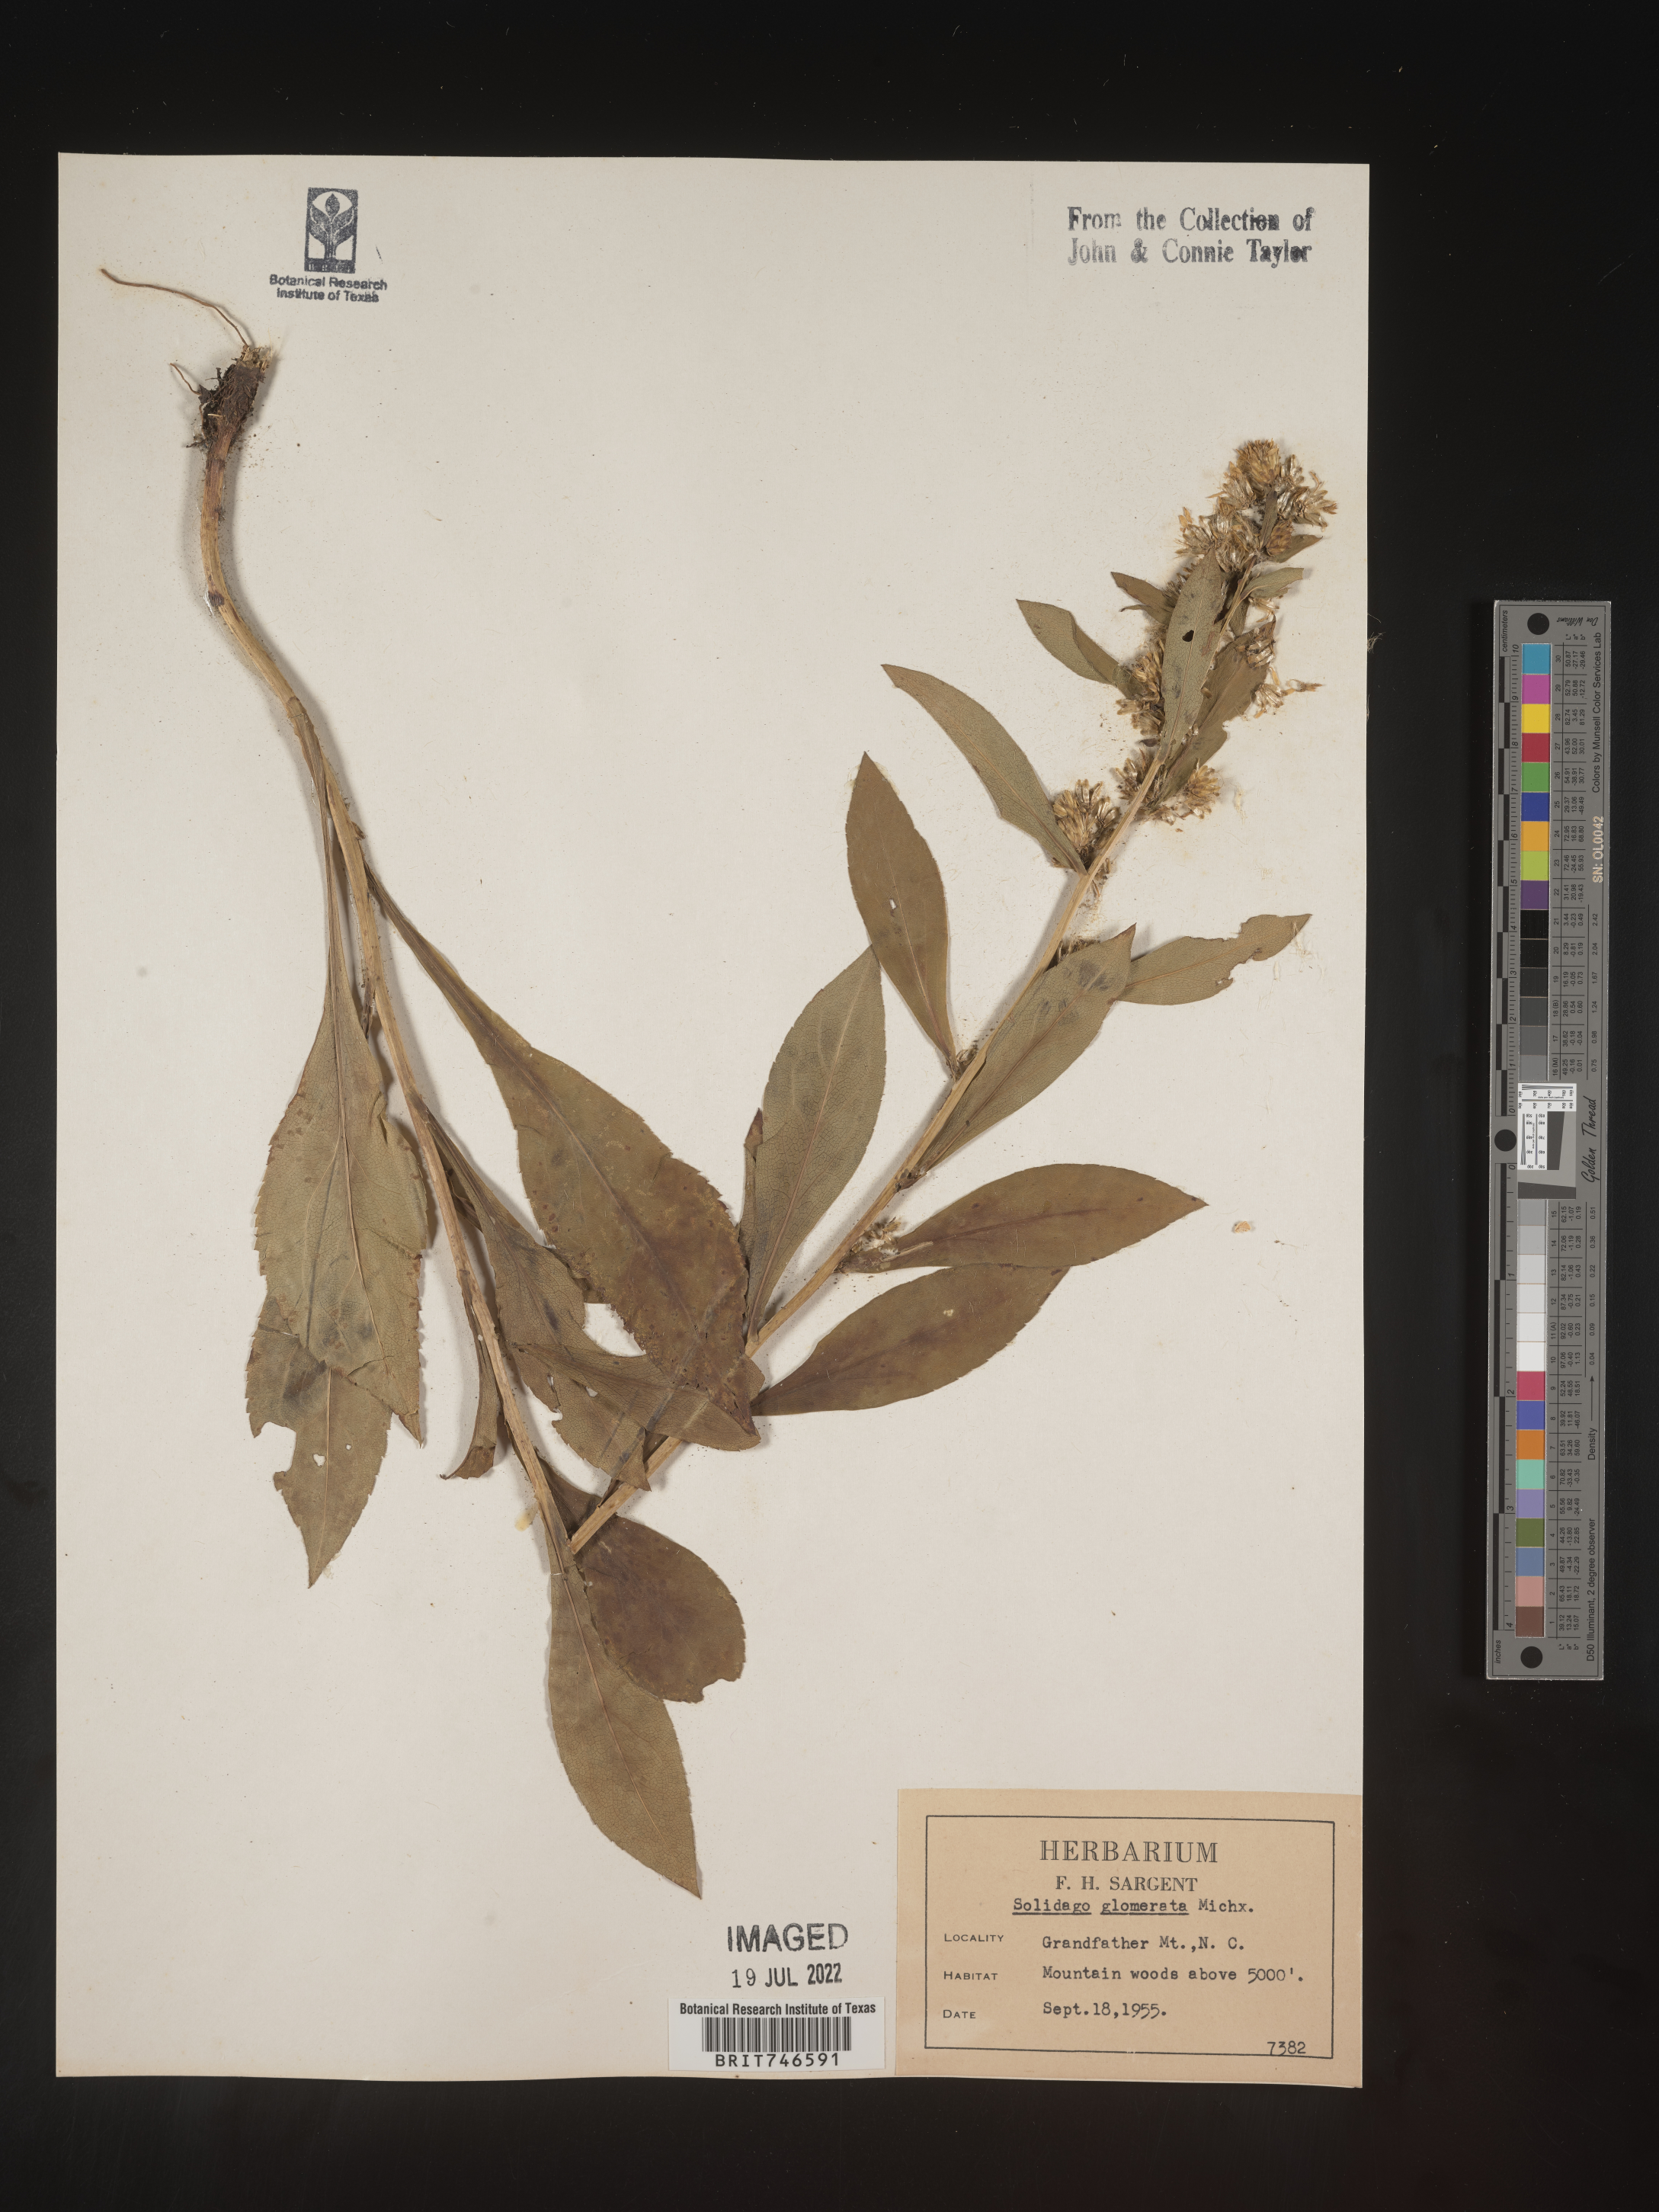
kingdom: Plantae
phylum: Tracheophyta
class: Magnoliopsida
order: Asterales
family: Asteraceae
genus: Solidago
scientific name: Solidago glomerata
